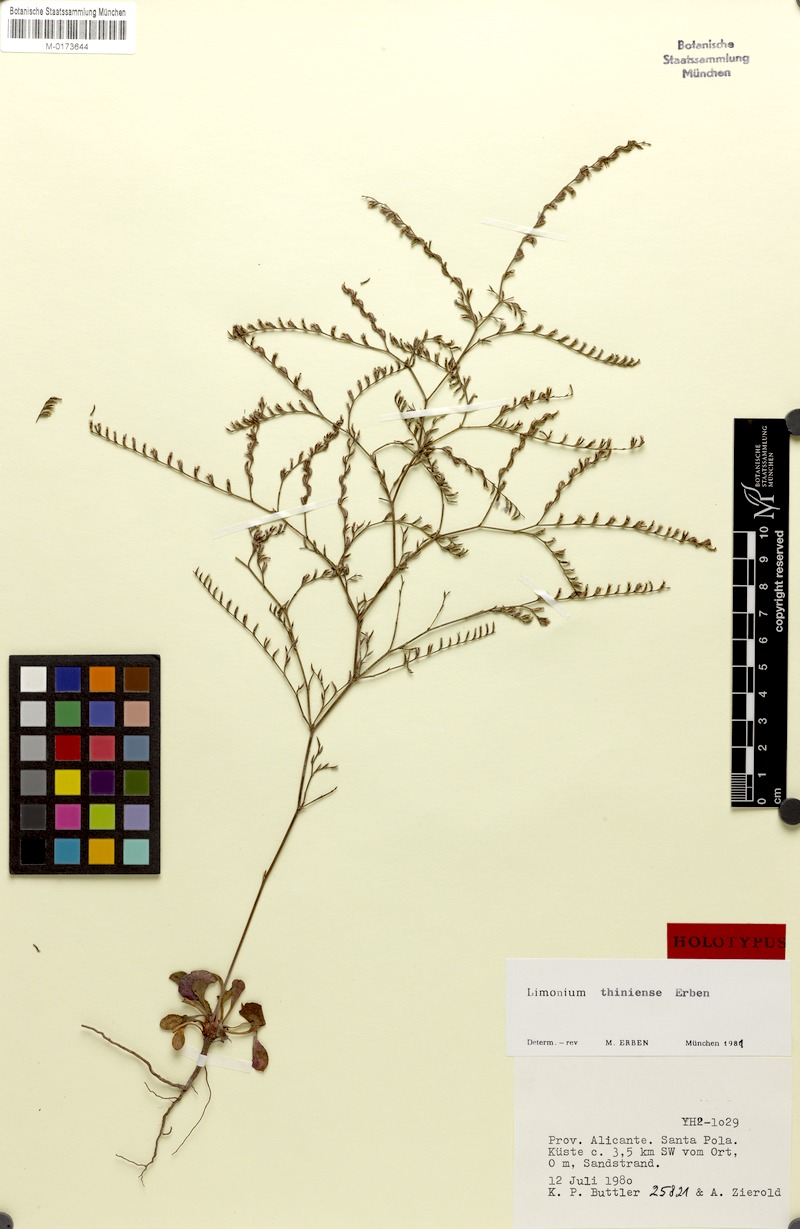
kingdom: Plantae
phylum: Tracheophyta
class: Magnoliopsida
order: Caryophyllales
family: Plumbaginaceae
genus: Limonium
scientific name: Limonium thiniense
